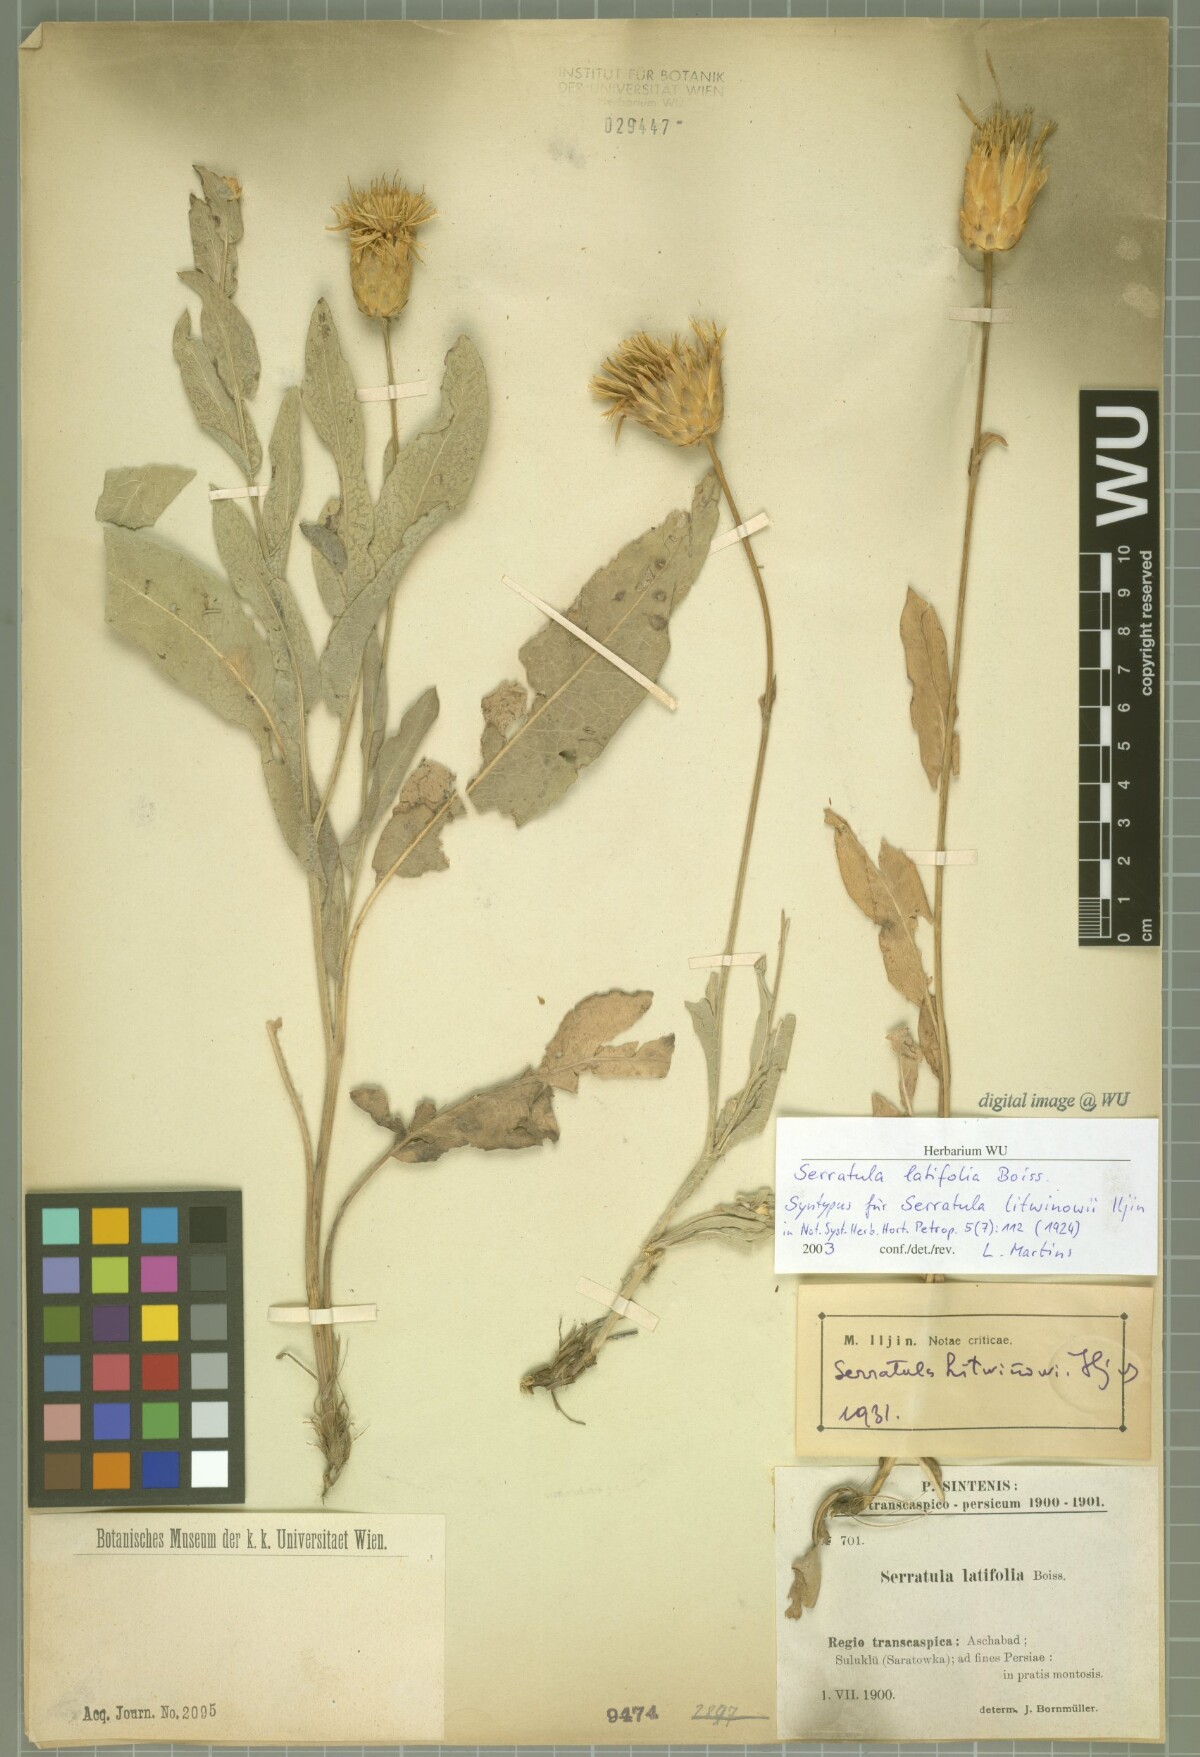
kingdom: Plantae
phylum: Tracheophyta
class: Magnoliopsida
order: Asterales
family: Asteraceae
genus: Klasea
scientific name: Klasea litwinowii
